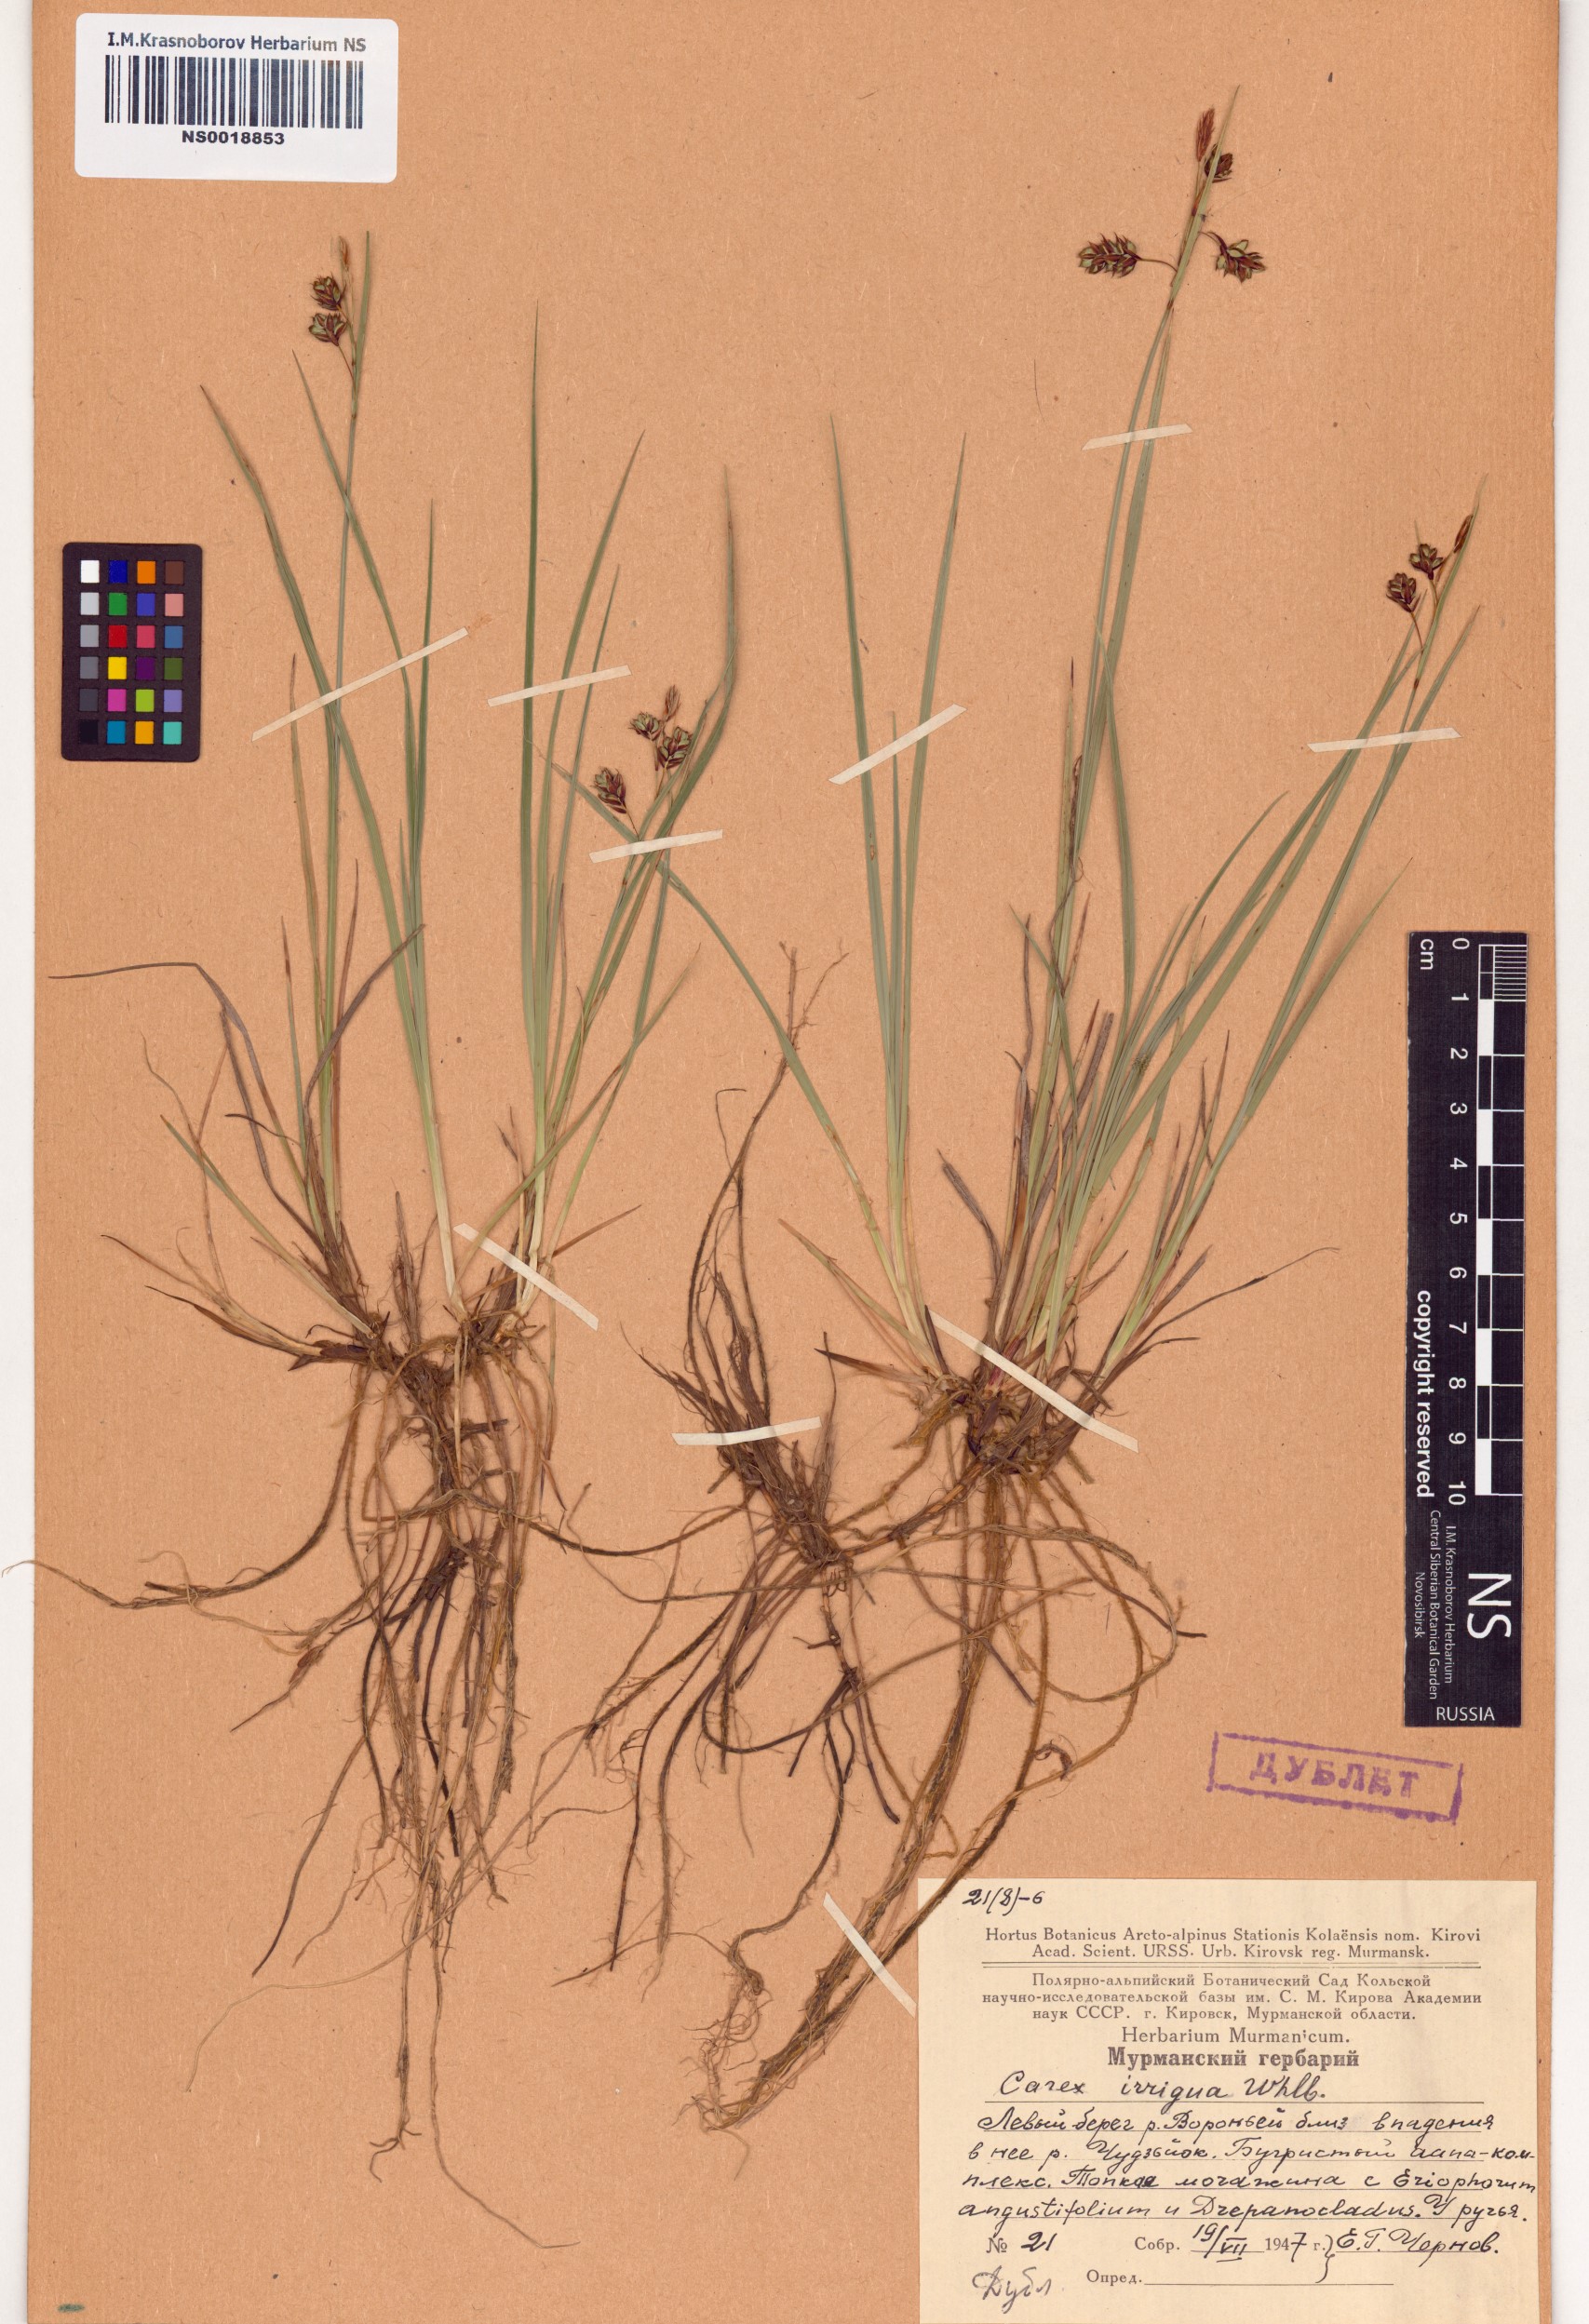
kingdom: Plantae
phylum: Tracheophyta
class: Liliopsida
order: Poales
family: Cyperaceae
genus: Carex
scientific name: Carex magellanica
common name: Bog sedge
